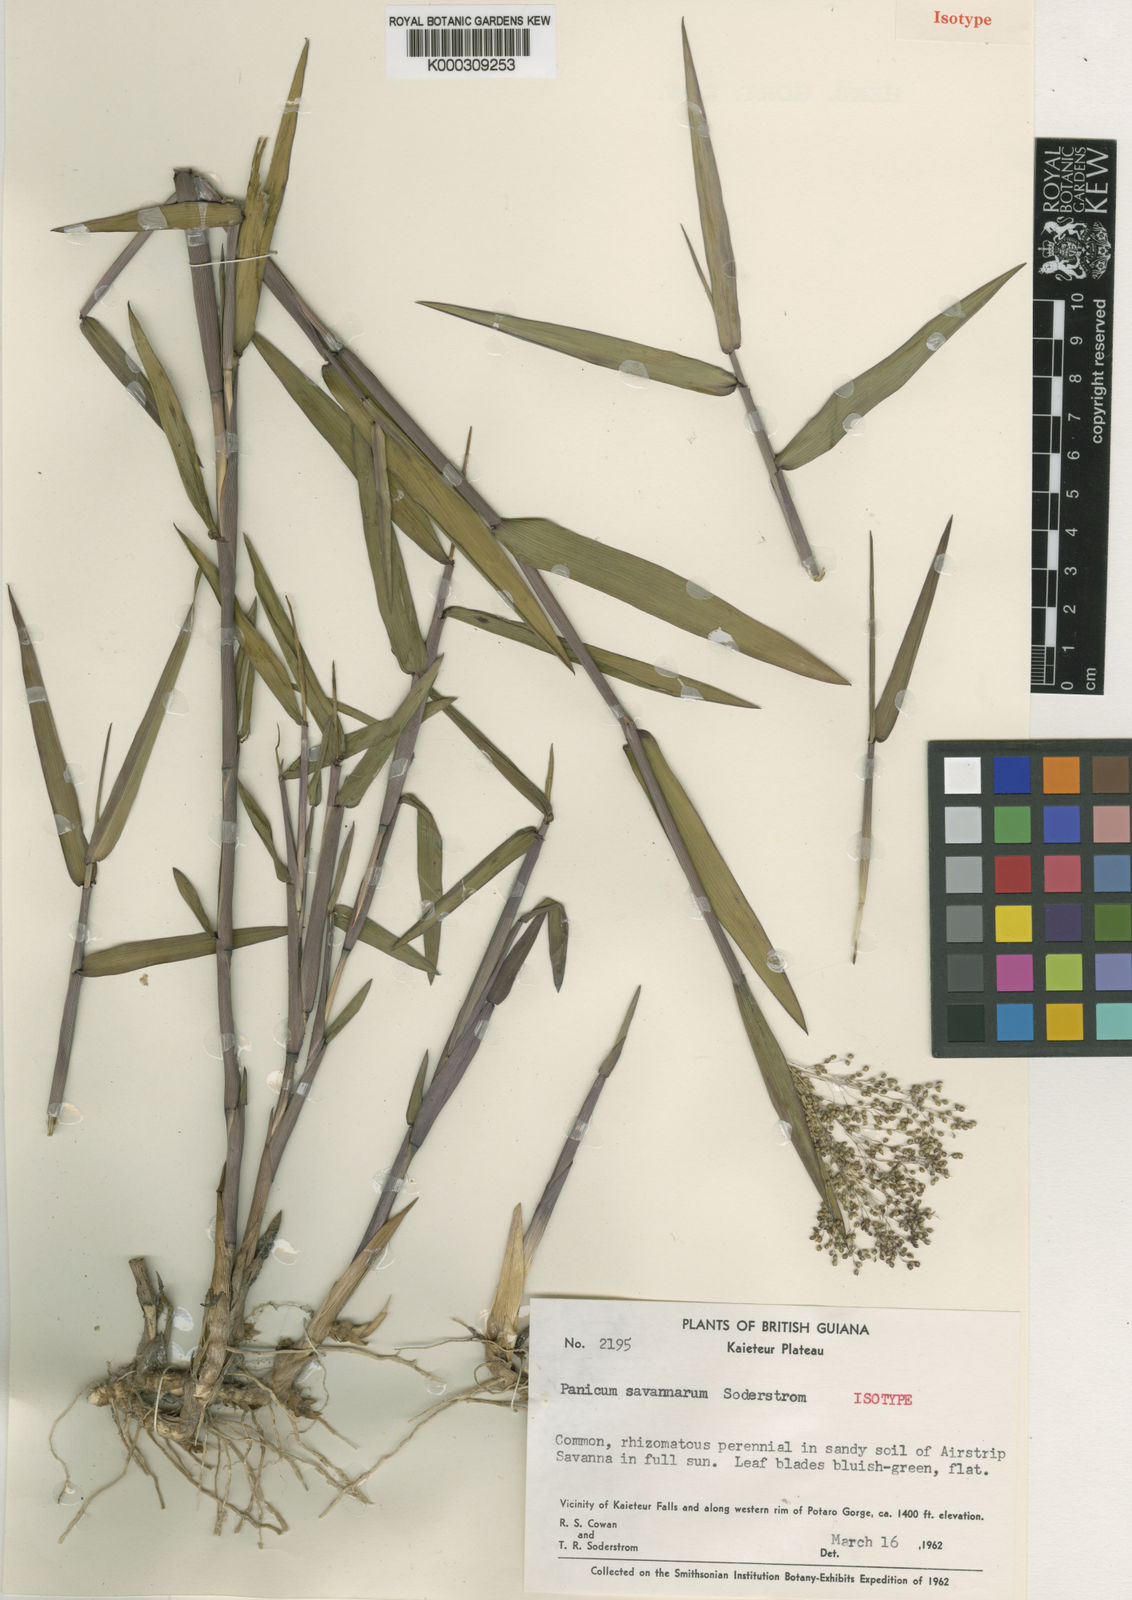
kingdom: Plantae
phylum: Tracheophyta
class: Liliopsida
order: Poales
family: Poaceae
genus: Trichanthecium
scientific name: Trichanthecium cyanescens
